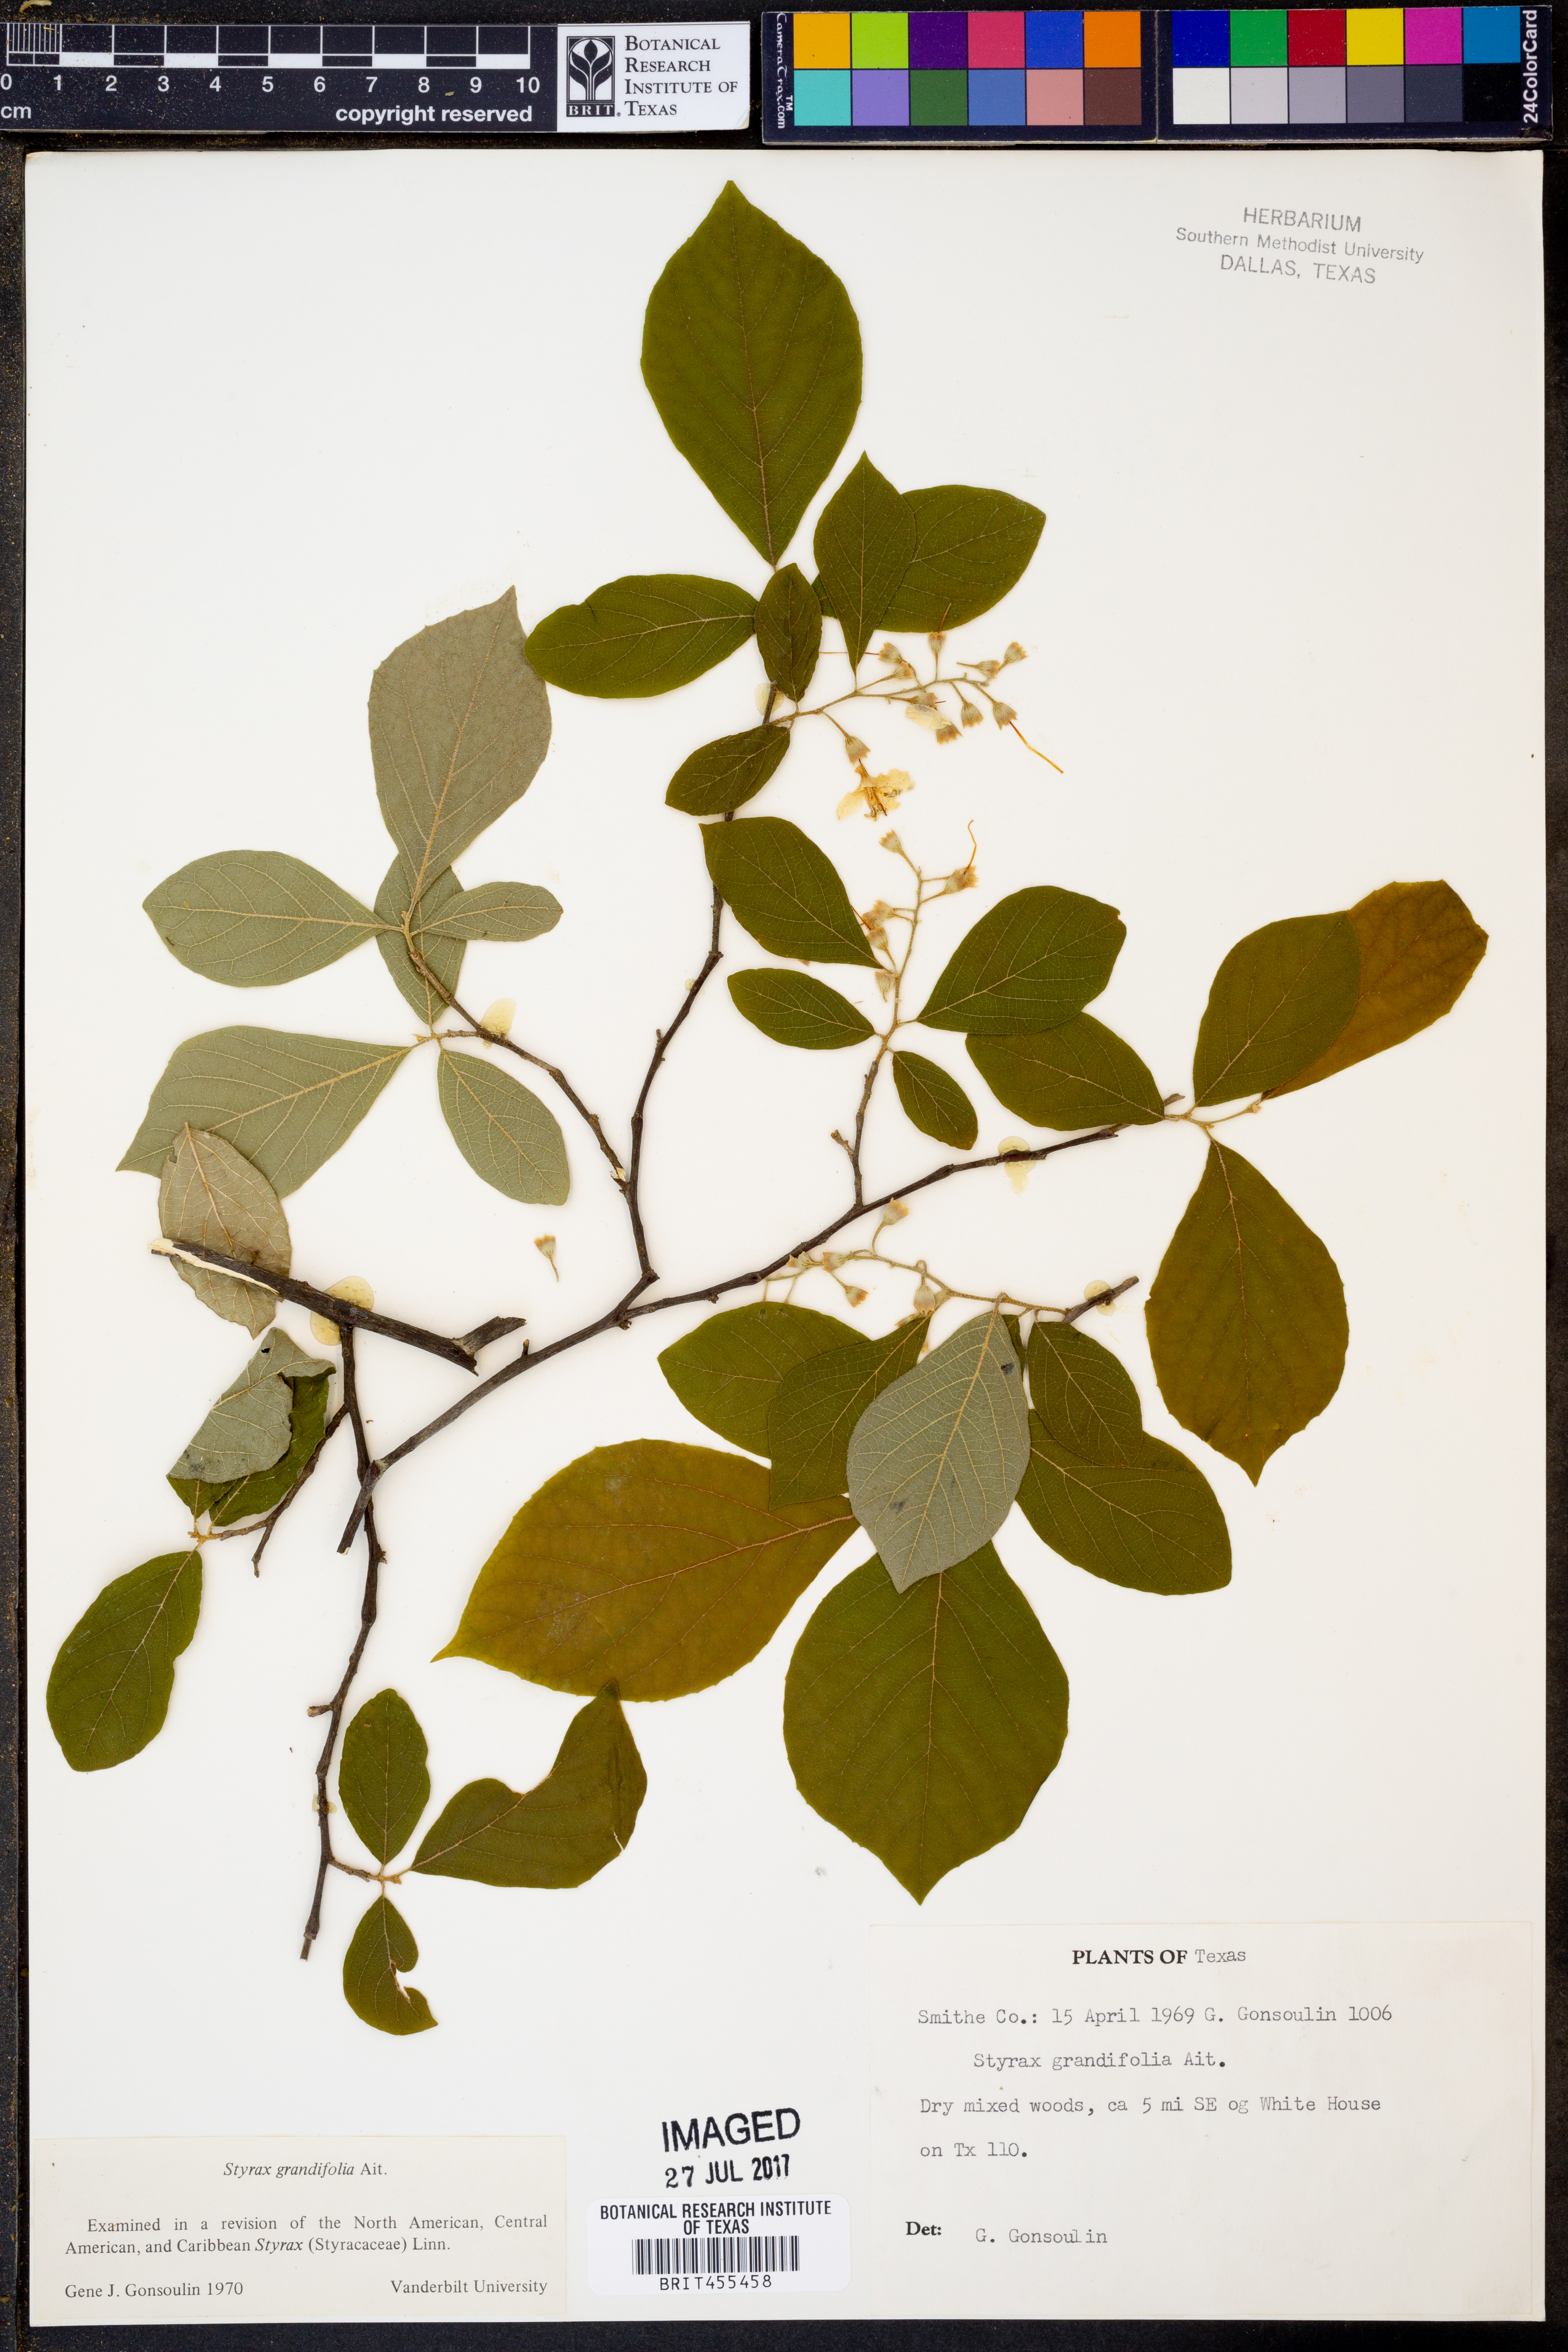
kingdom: Plantae
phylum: Tracheophyta
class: Magnoliopsida
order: Ericales
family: Styracaceae
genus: Styrax
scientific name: Styrax grandifolius
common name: Big-leaf snowbell
